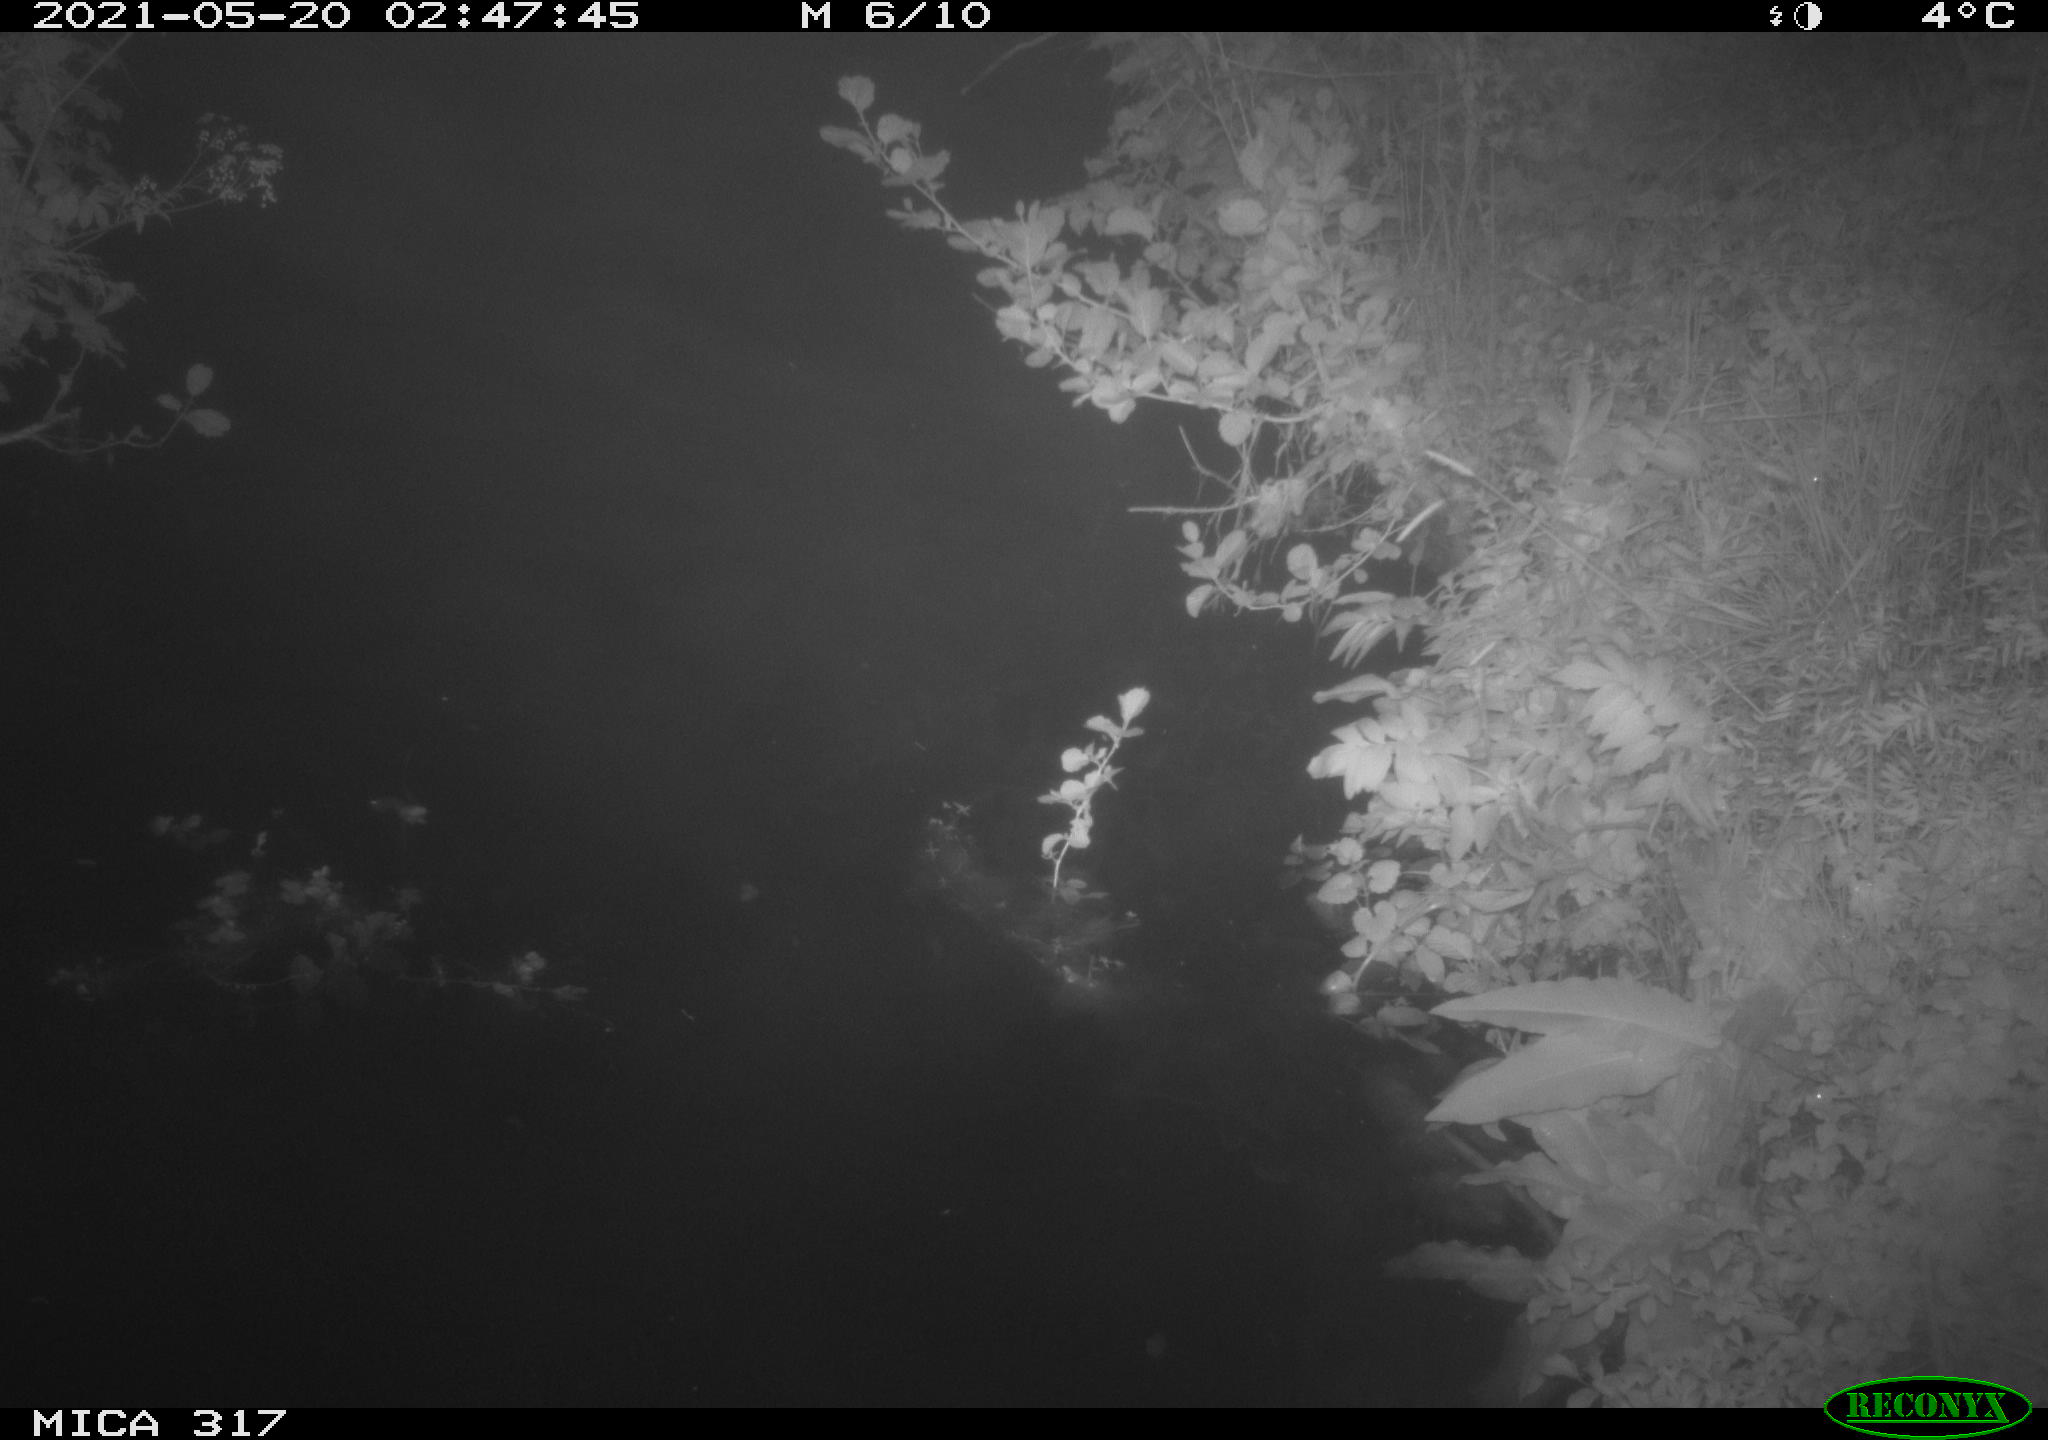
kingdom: Animalia
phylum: Chordata
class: Aves
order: Anseriformes
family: Anatidae
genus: Anas
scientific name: Anas
